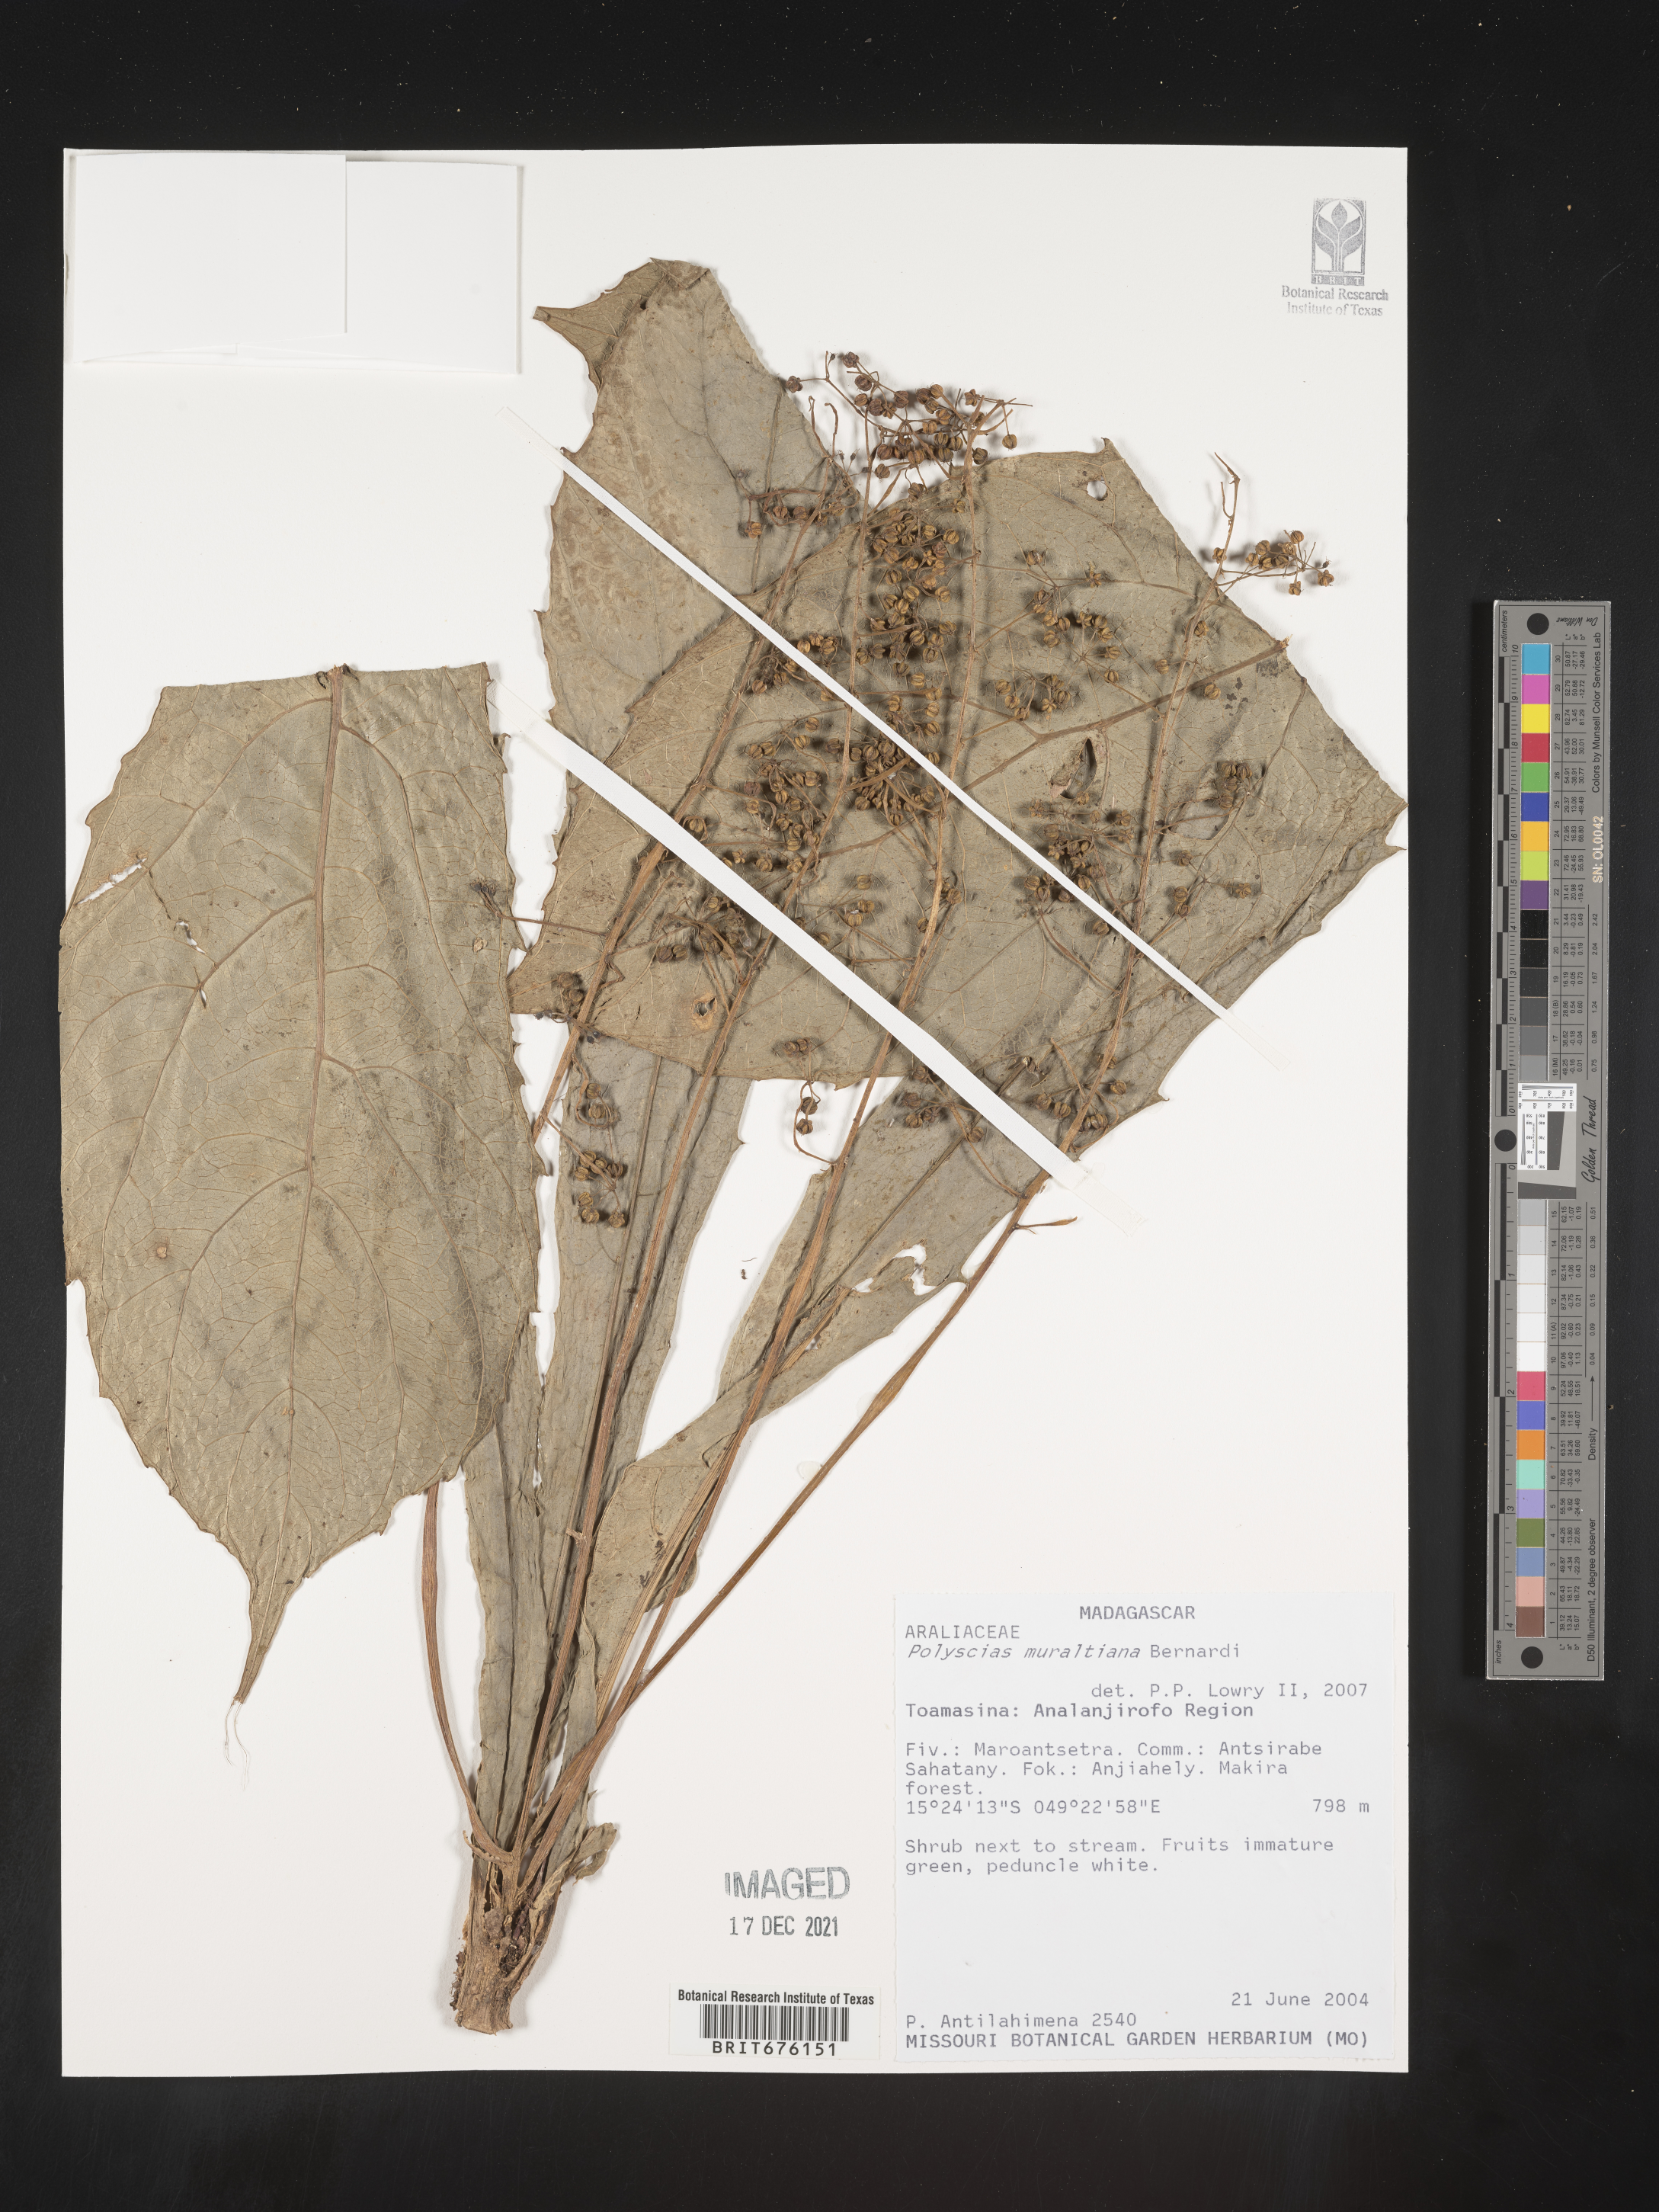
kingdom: Plantae
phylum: Tracheophyta
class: Magnoliopsida
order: Apiales
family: Araliaceae
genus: Polyscias
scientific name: Polyscias
